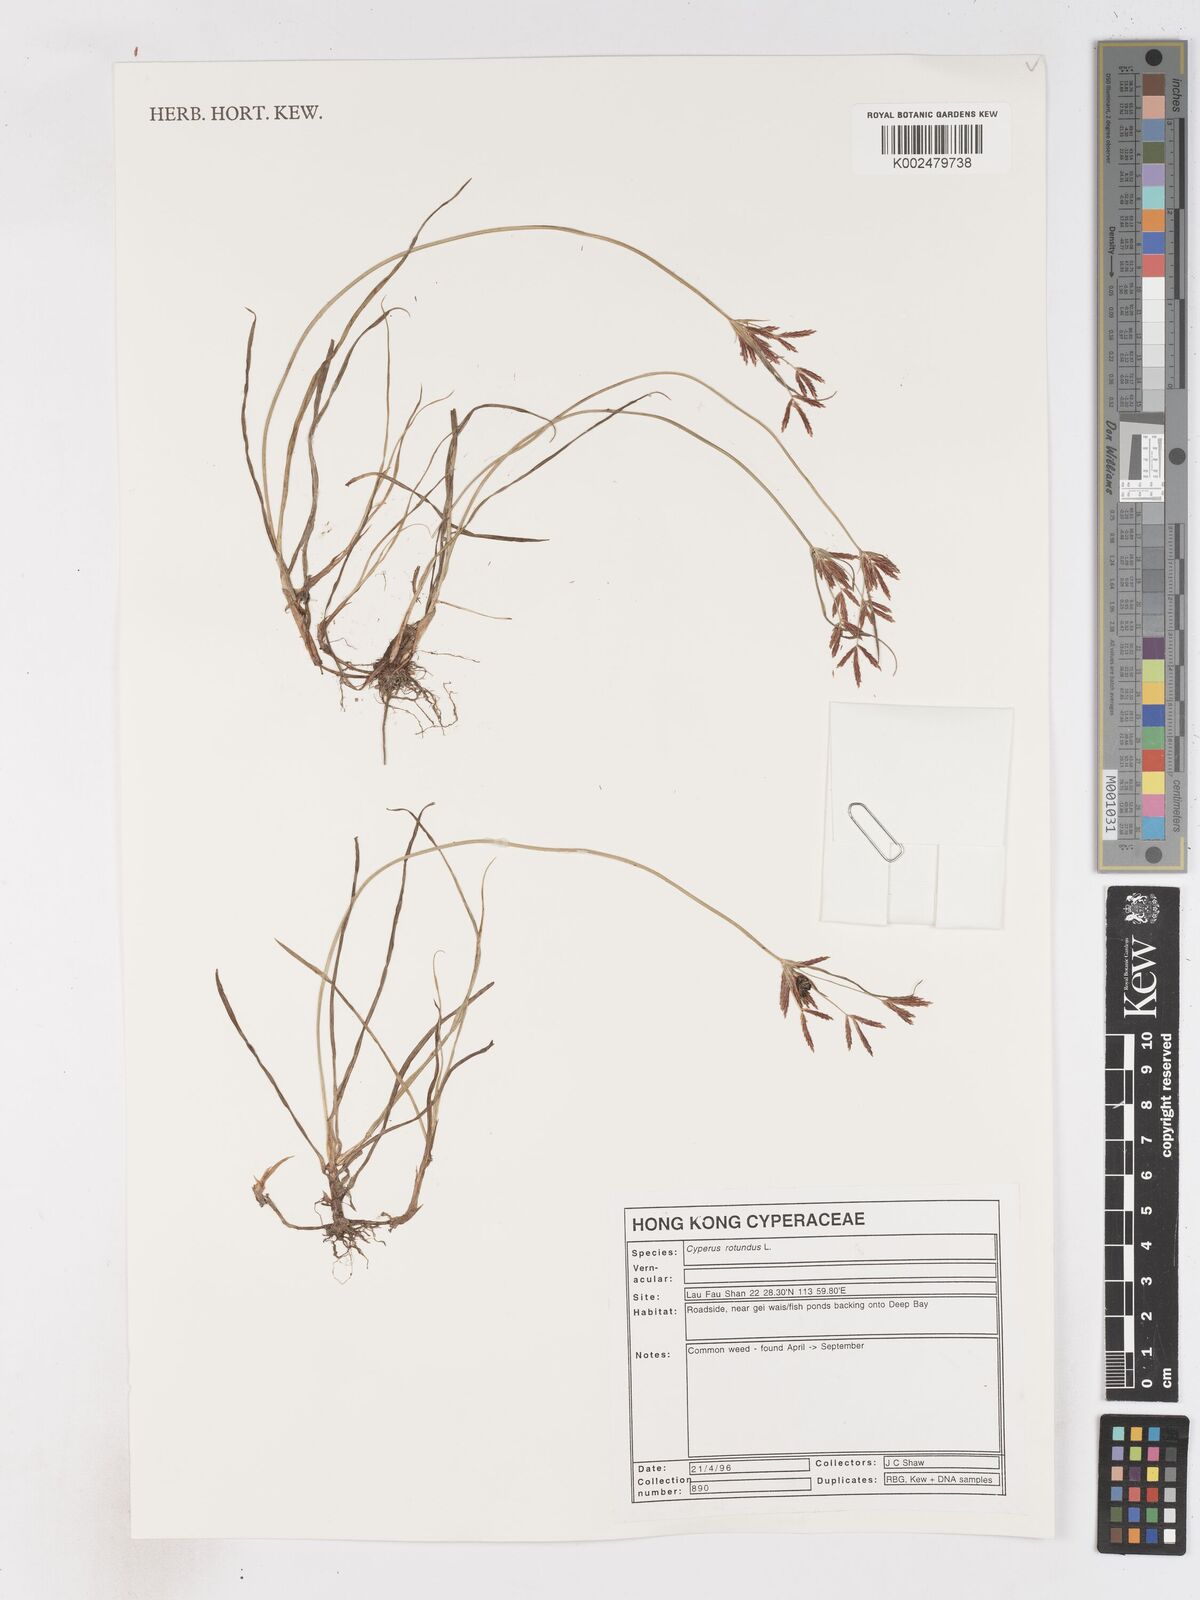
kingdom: Plantae
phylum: Tracheophyta
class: Liliopsida
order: Poales
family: Cyperaceae
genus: Cyperus
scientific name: Cyperus rotundus
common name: Nutgrass
